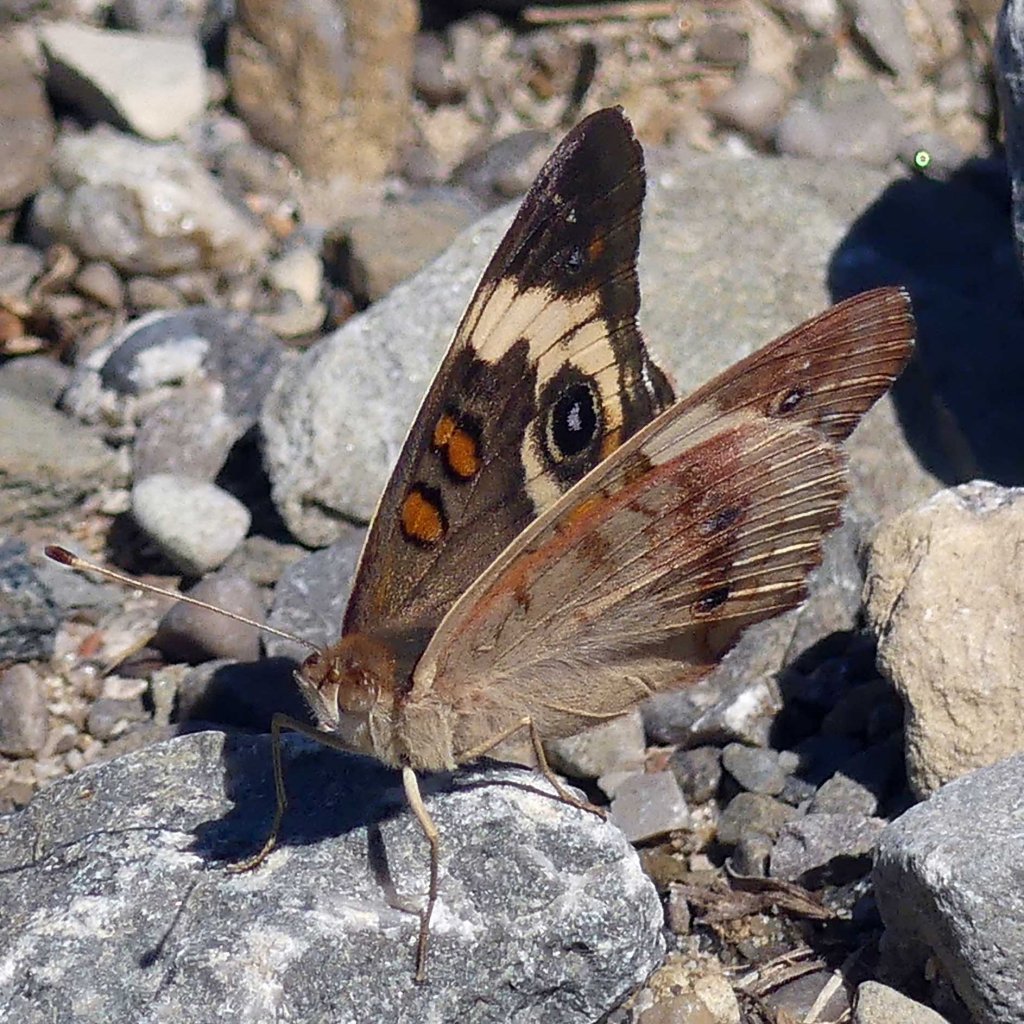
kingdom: Animalia
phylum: Arthropoda
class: Insecta
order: Lepidoptera
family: Nymphalidae
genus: Junonia
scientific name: Junonia coenia
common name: Common Buckeye
